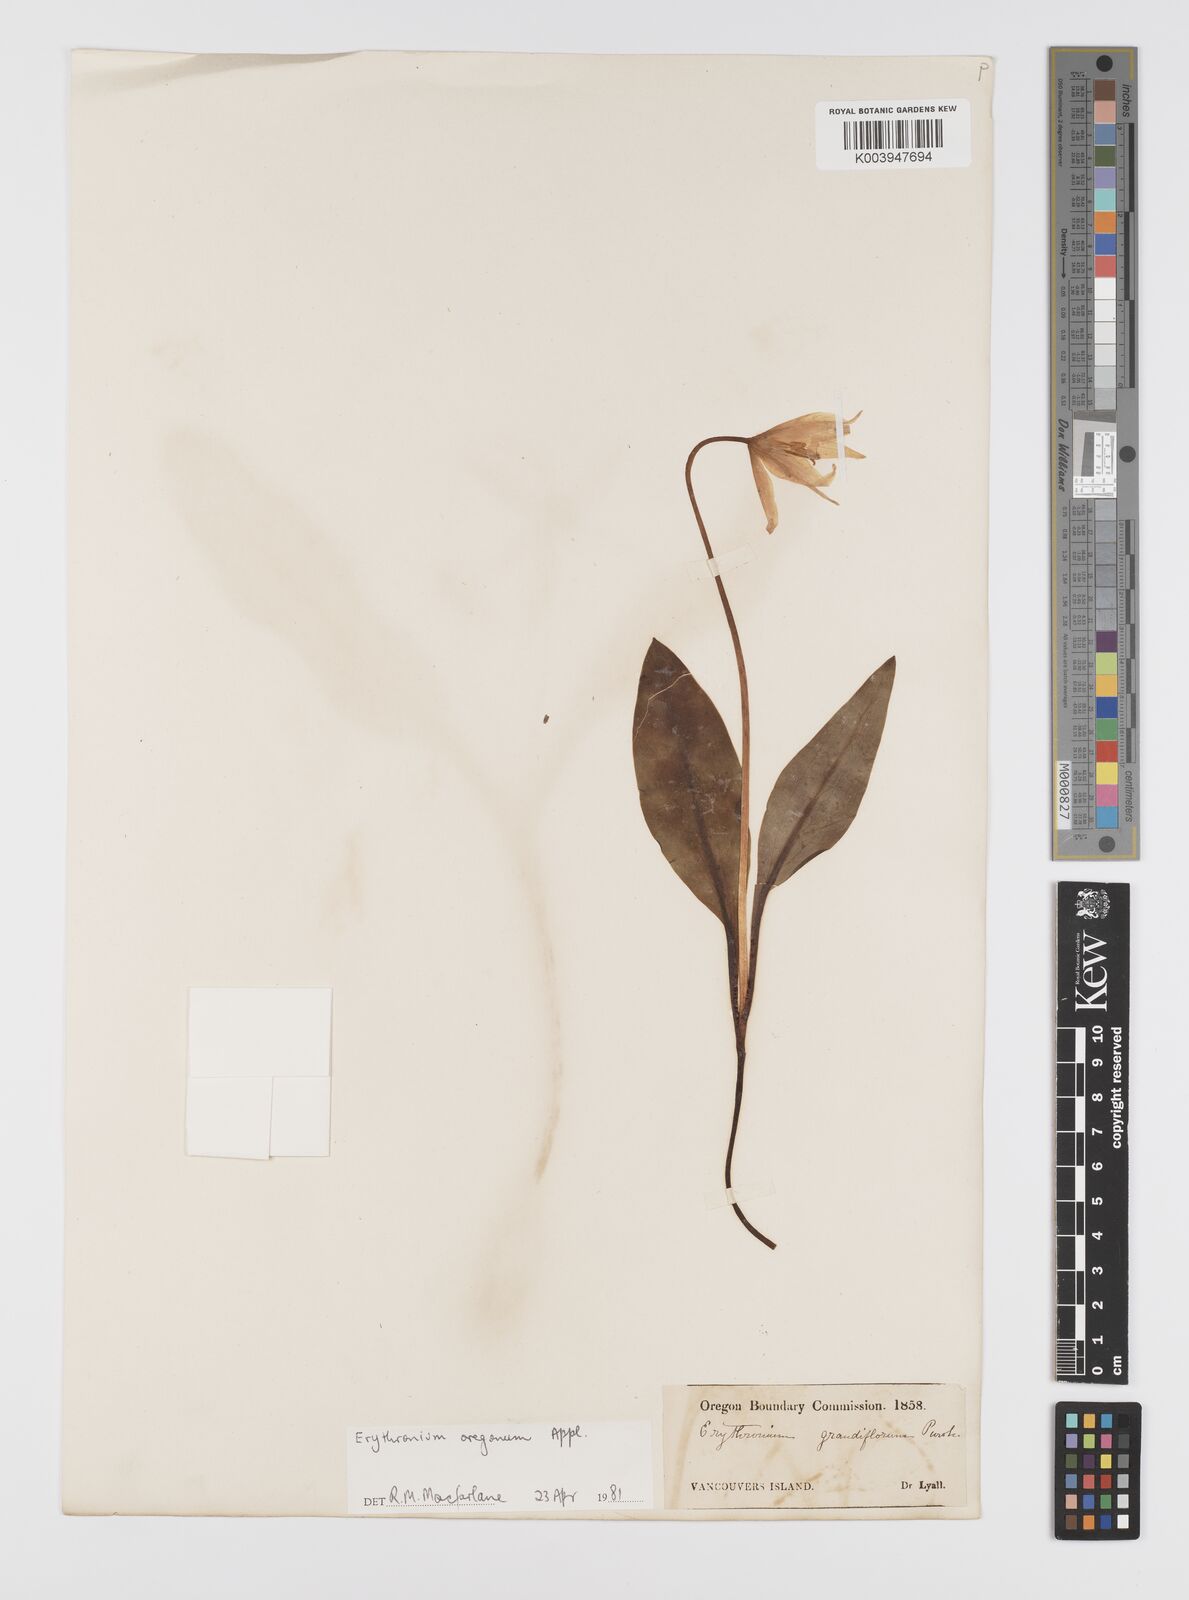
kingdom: Plantae
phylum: Tracheophyta
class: Liliopsida
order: Liliales
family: Liliaceae
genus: Erythronium
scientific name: Erythronium oregonum
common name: Giant adder's-tongue
